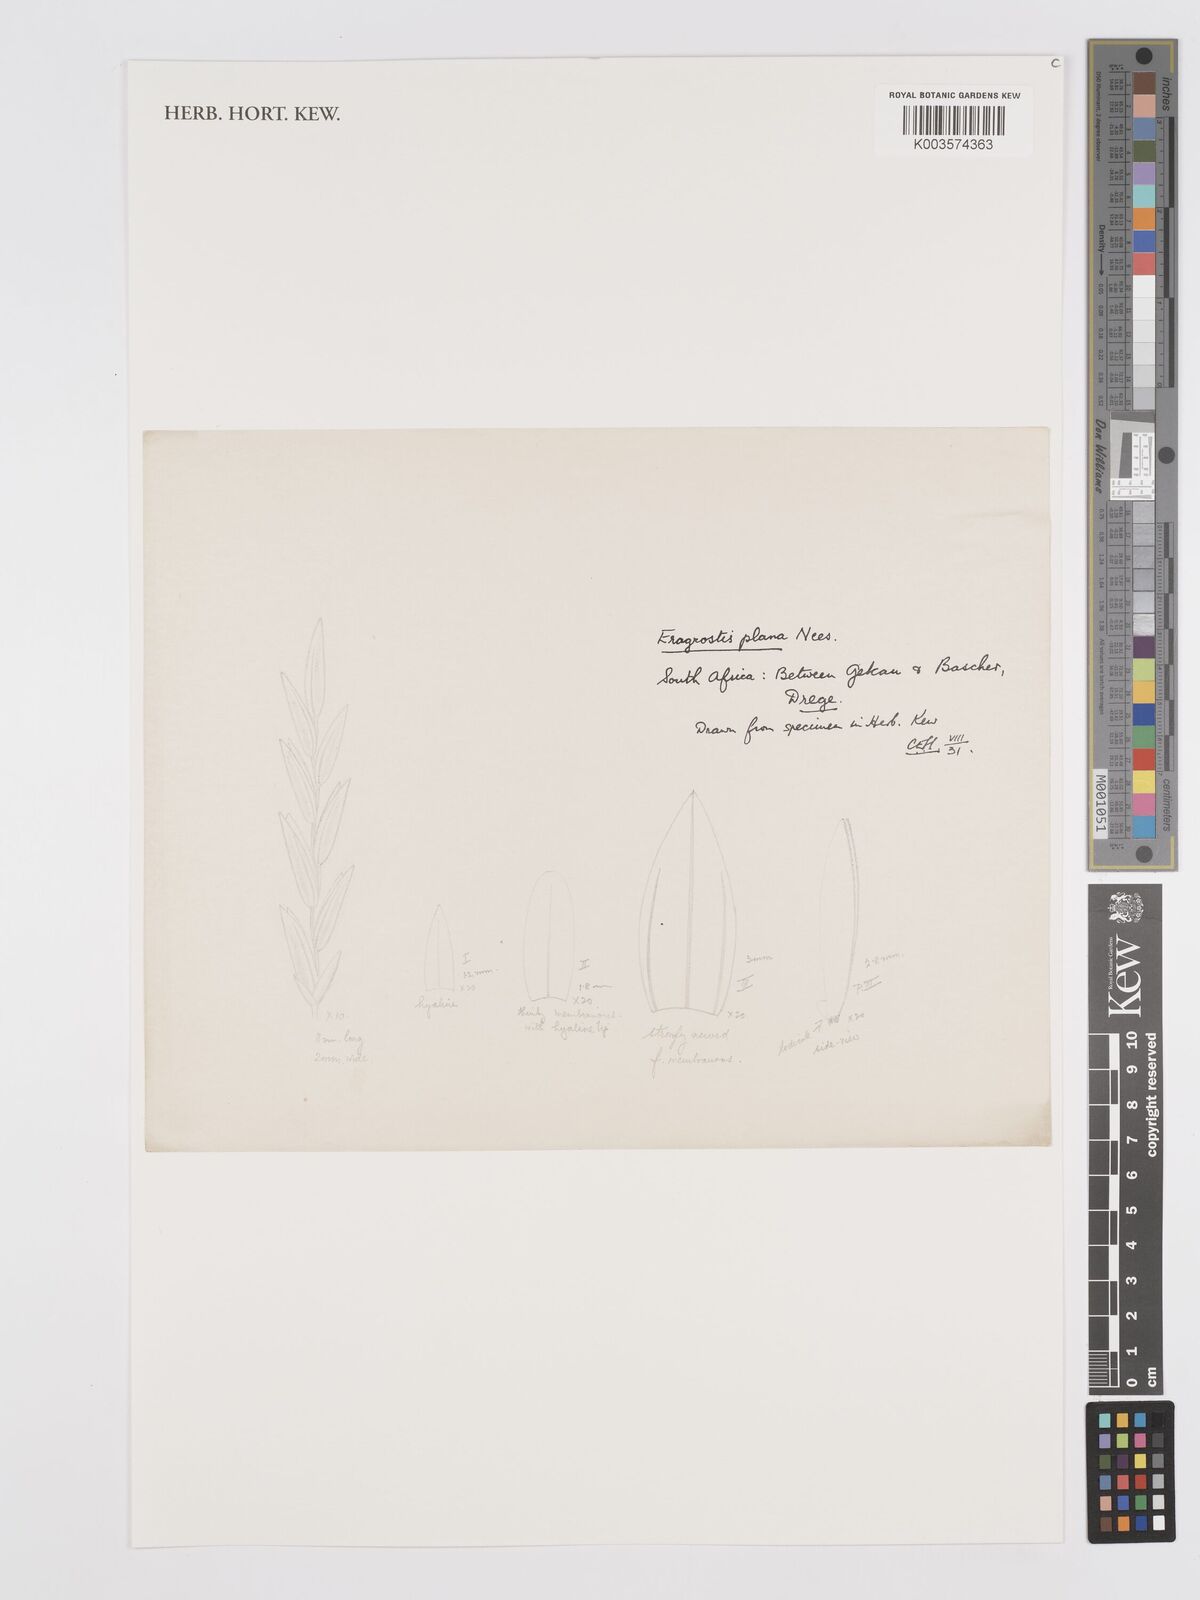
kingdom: Plantae
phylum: Tracheophyta
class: Liliopsida
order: Poales
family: Poaceae
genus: Eragrostis
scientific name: Eragrostis plana
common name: South african lovegrass
